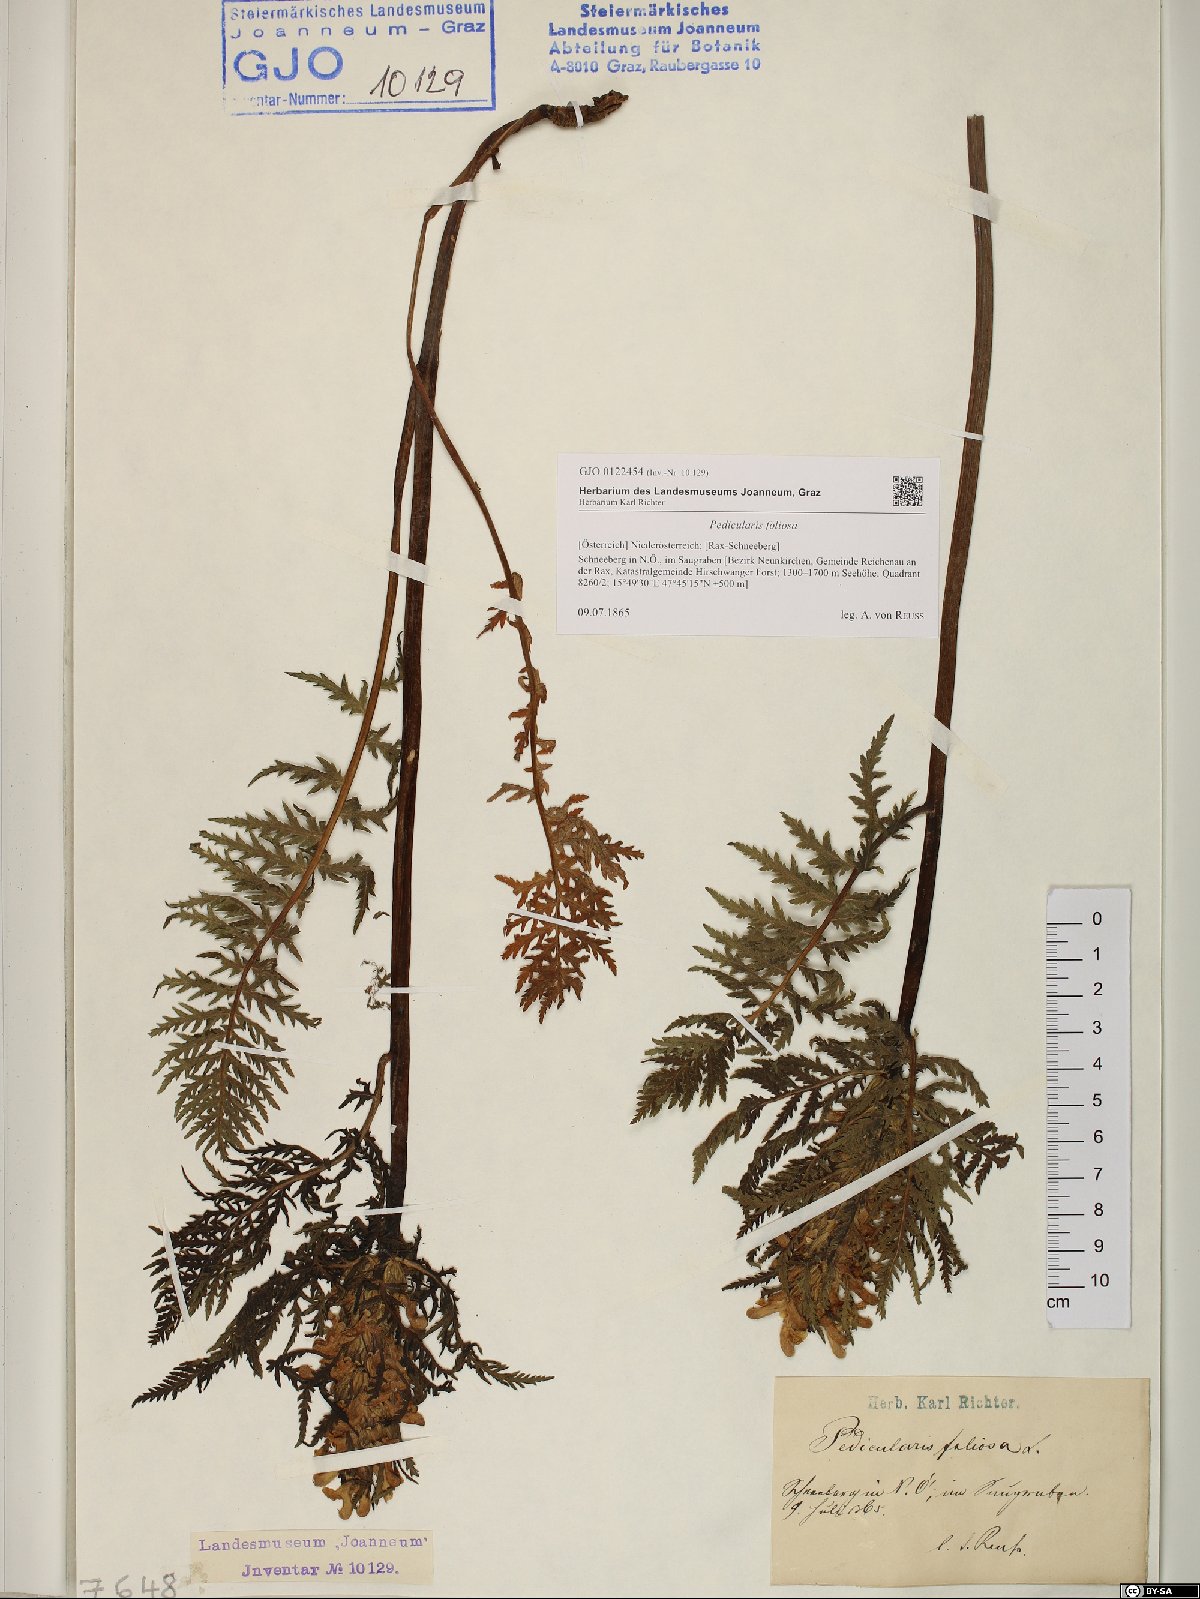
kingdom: Plantae
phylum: Tracheophyta
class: Magnoliopsida
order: Lamiales
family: Orobanchaceae
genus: Pedicularis
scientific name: Pedicularis foliosa
